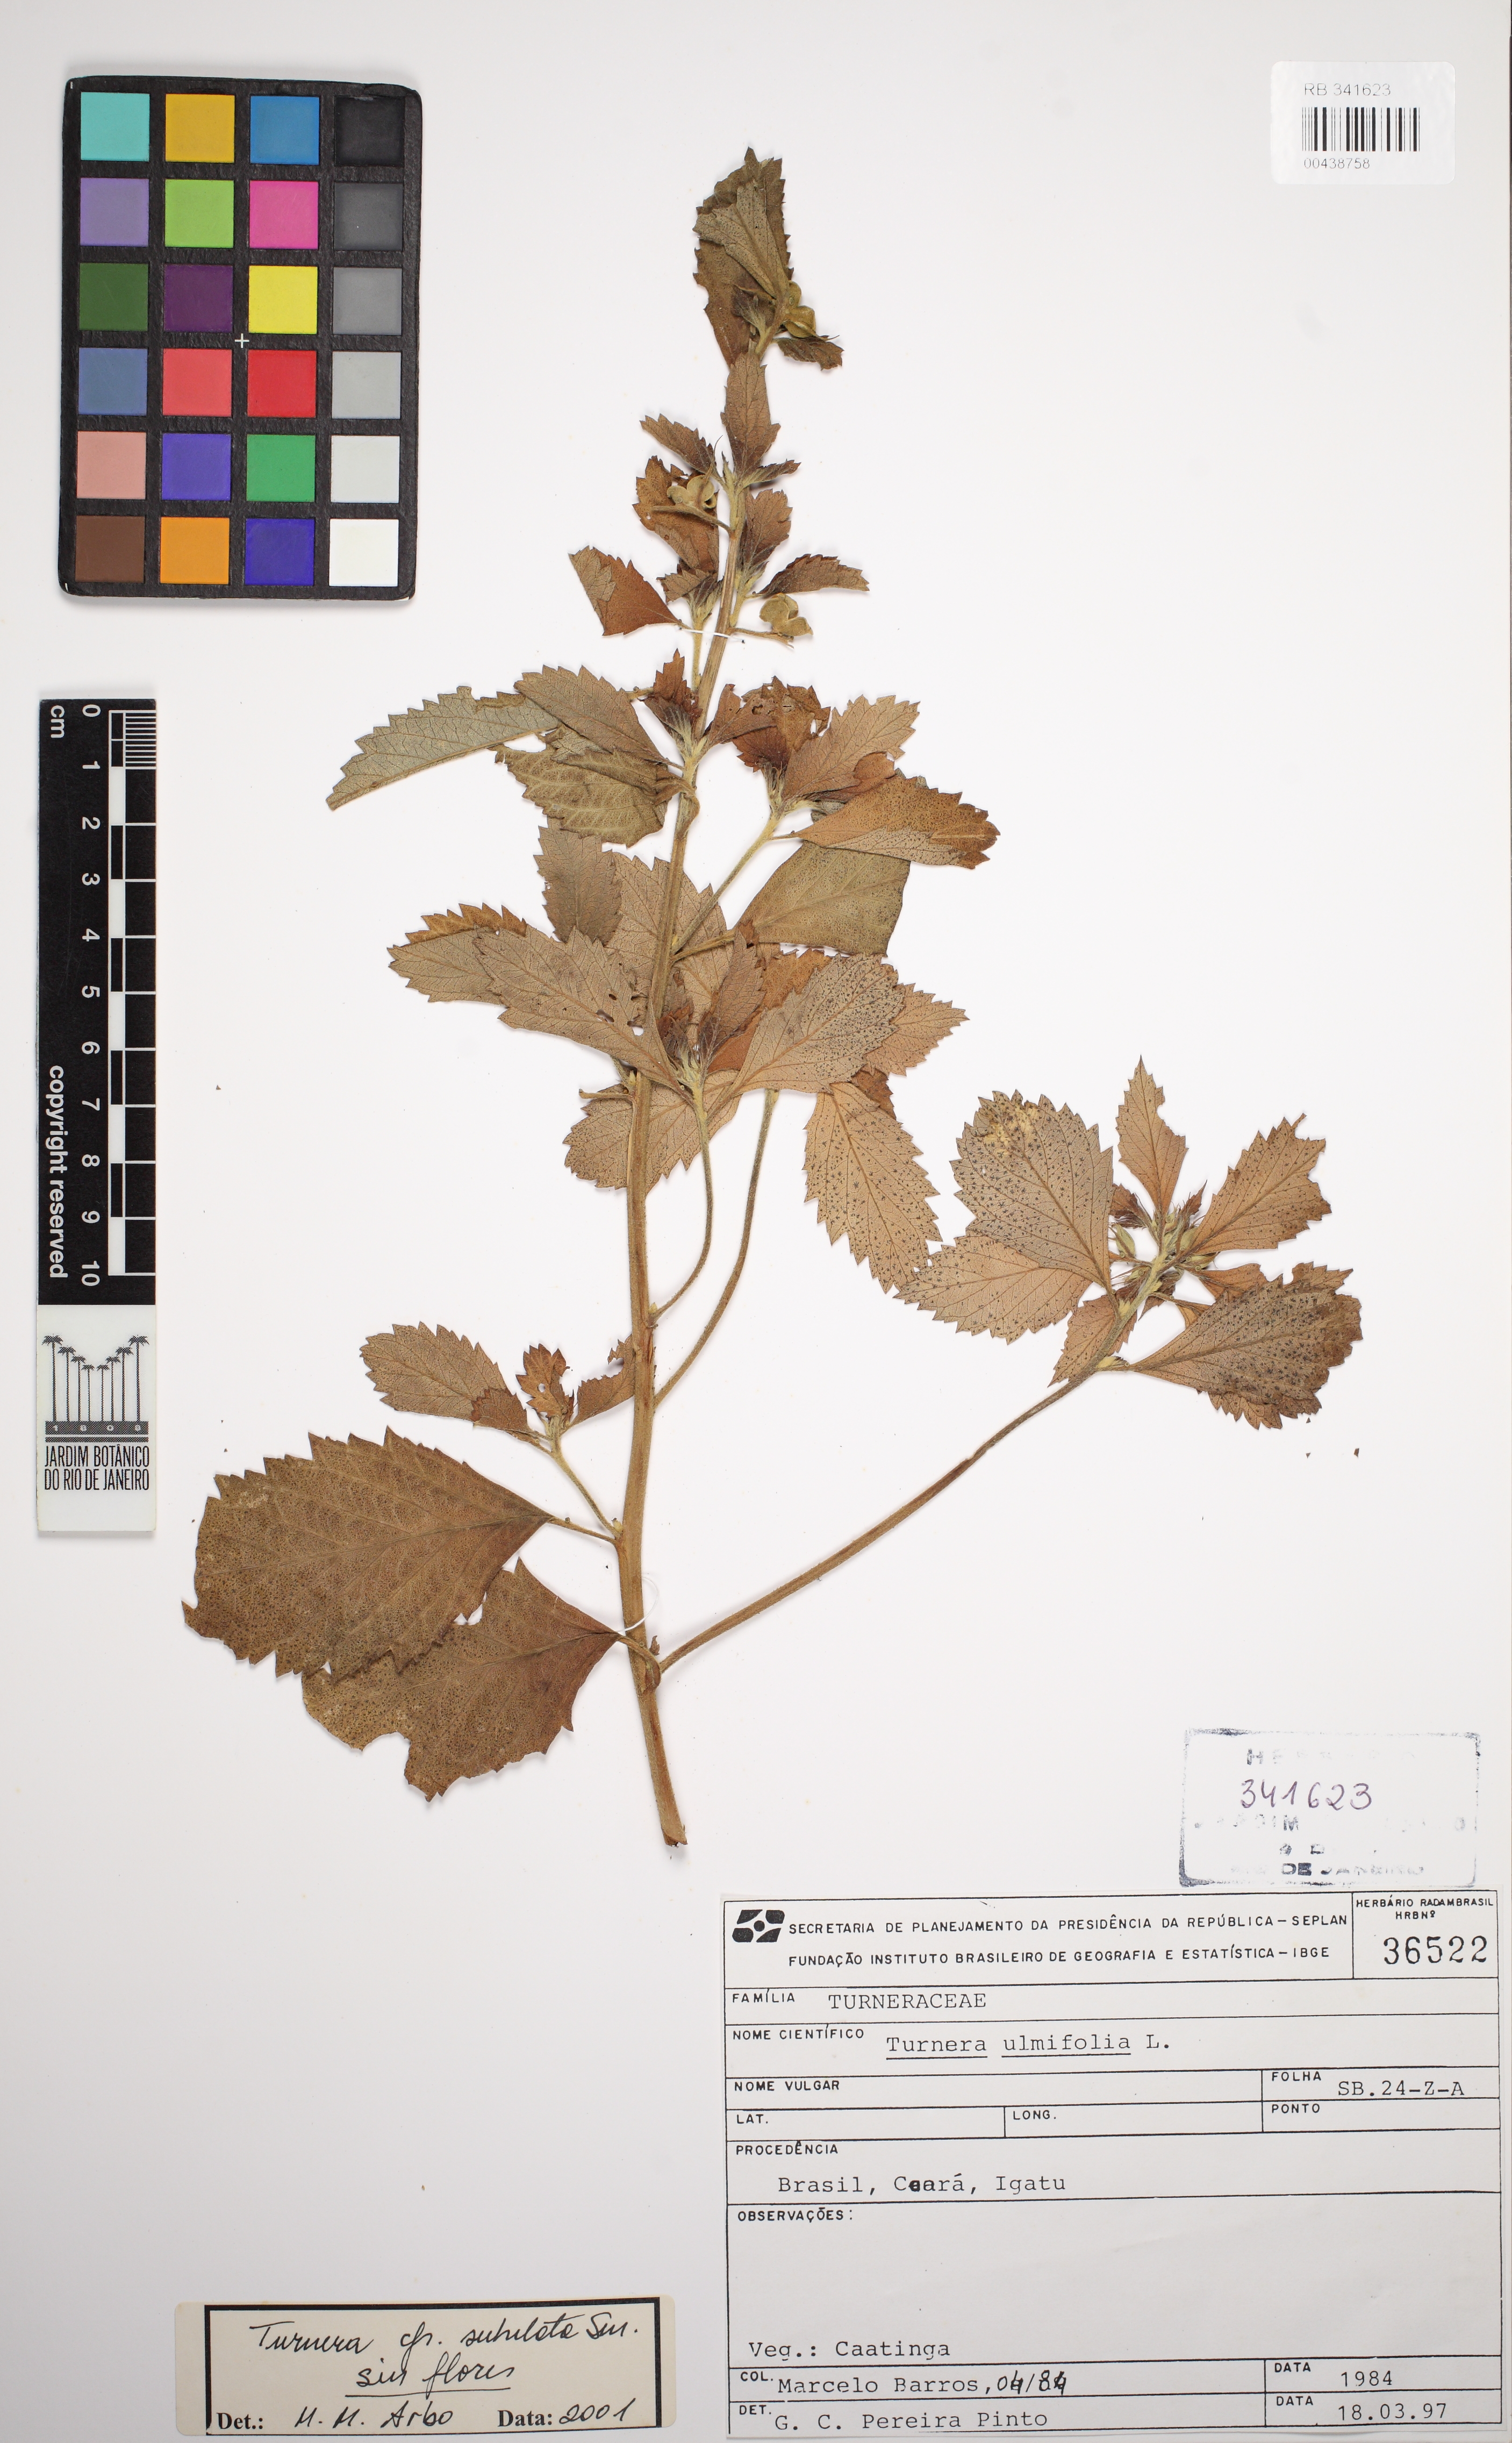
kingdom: Plantae
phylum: Tracheophyta
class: Magnoliopsida
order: Malpighiales
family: Turneraceae
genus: Turnera
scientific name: Turnera subulata
